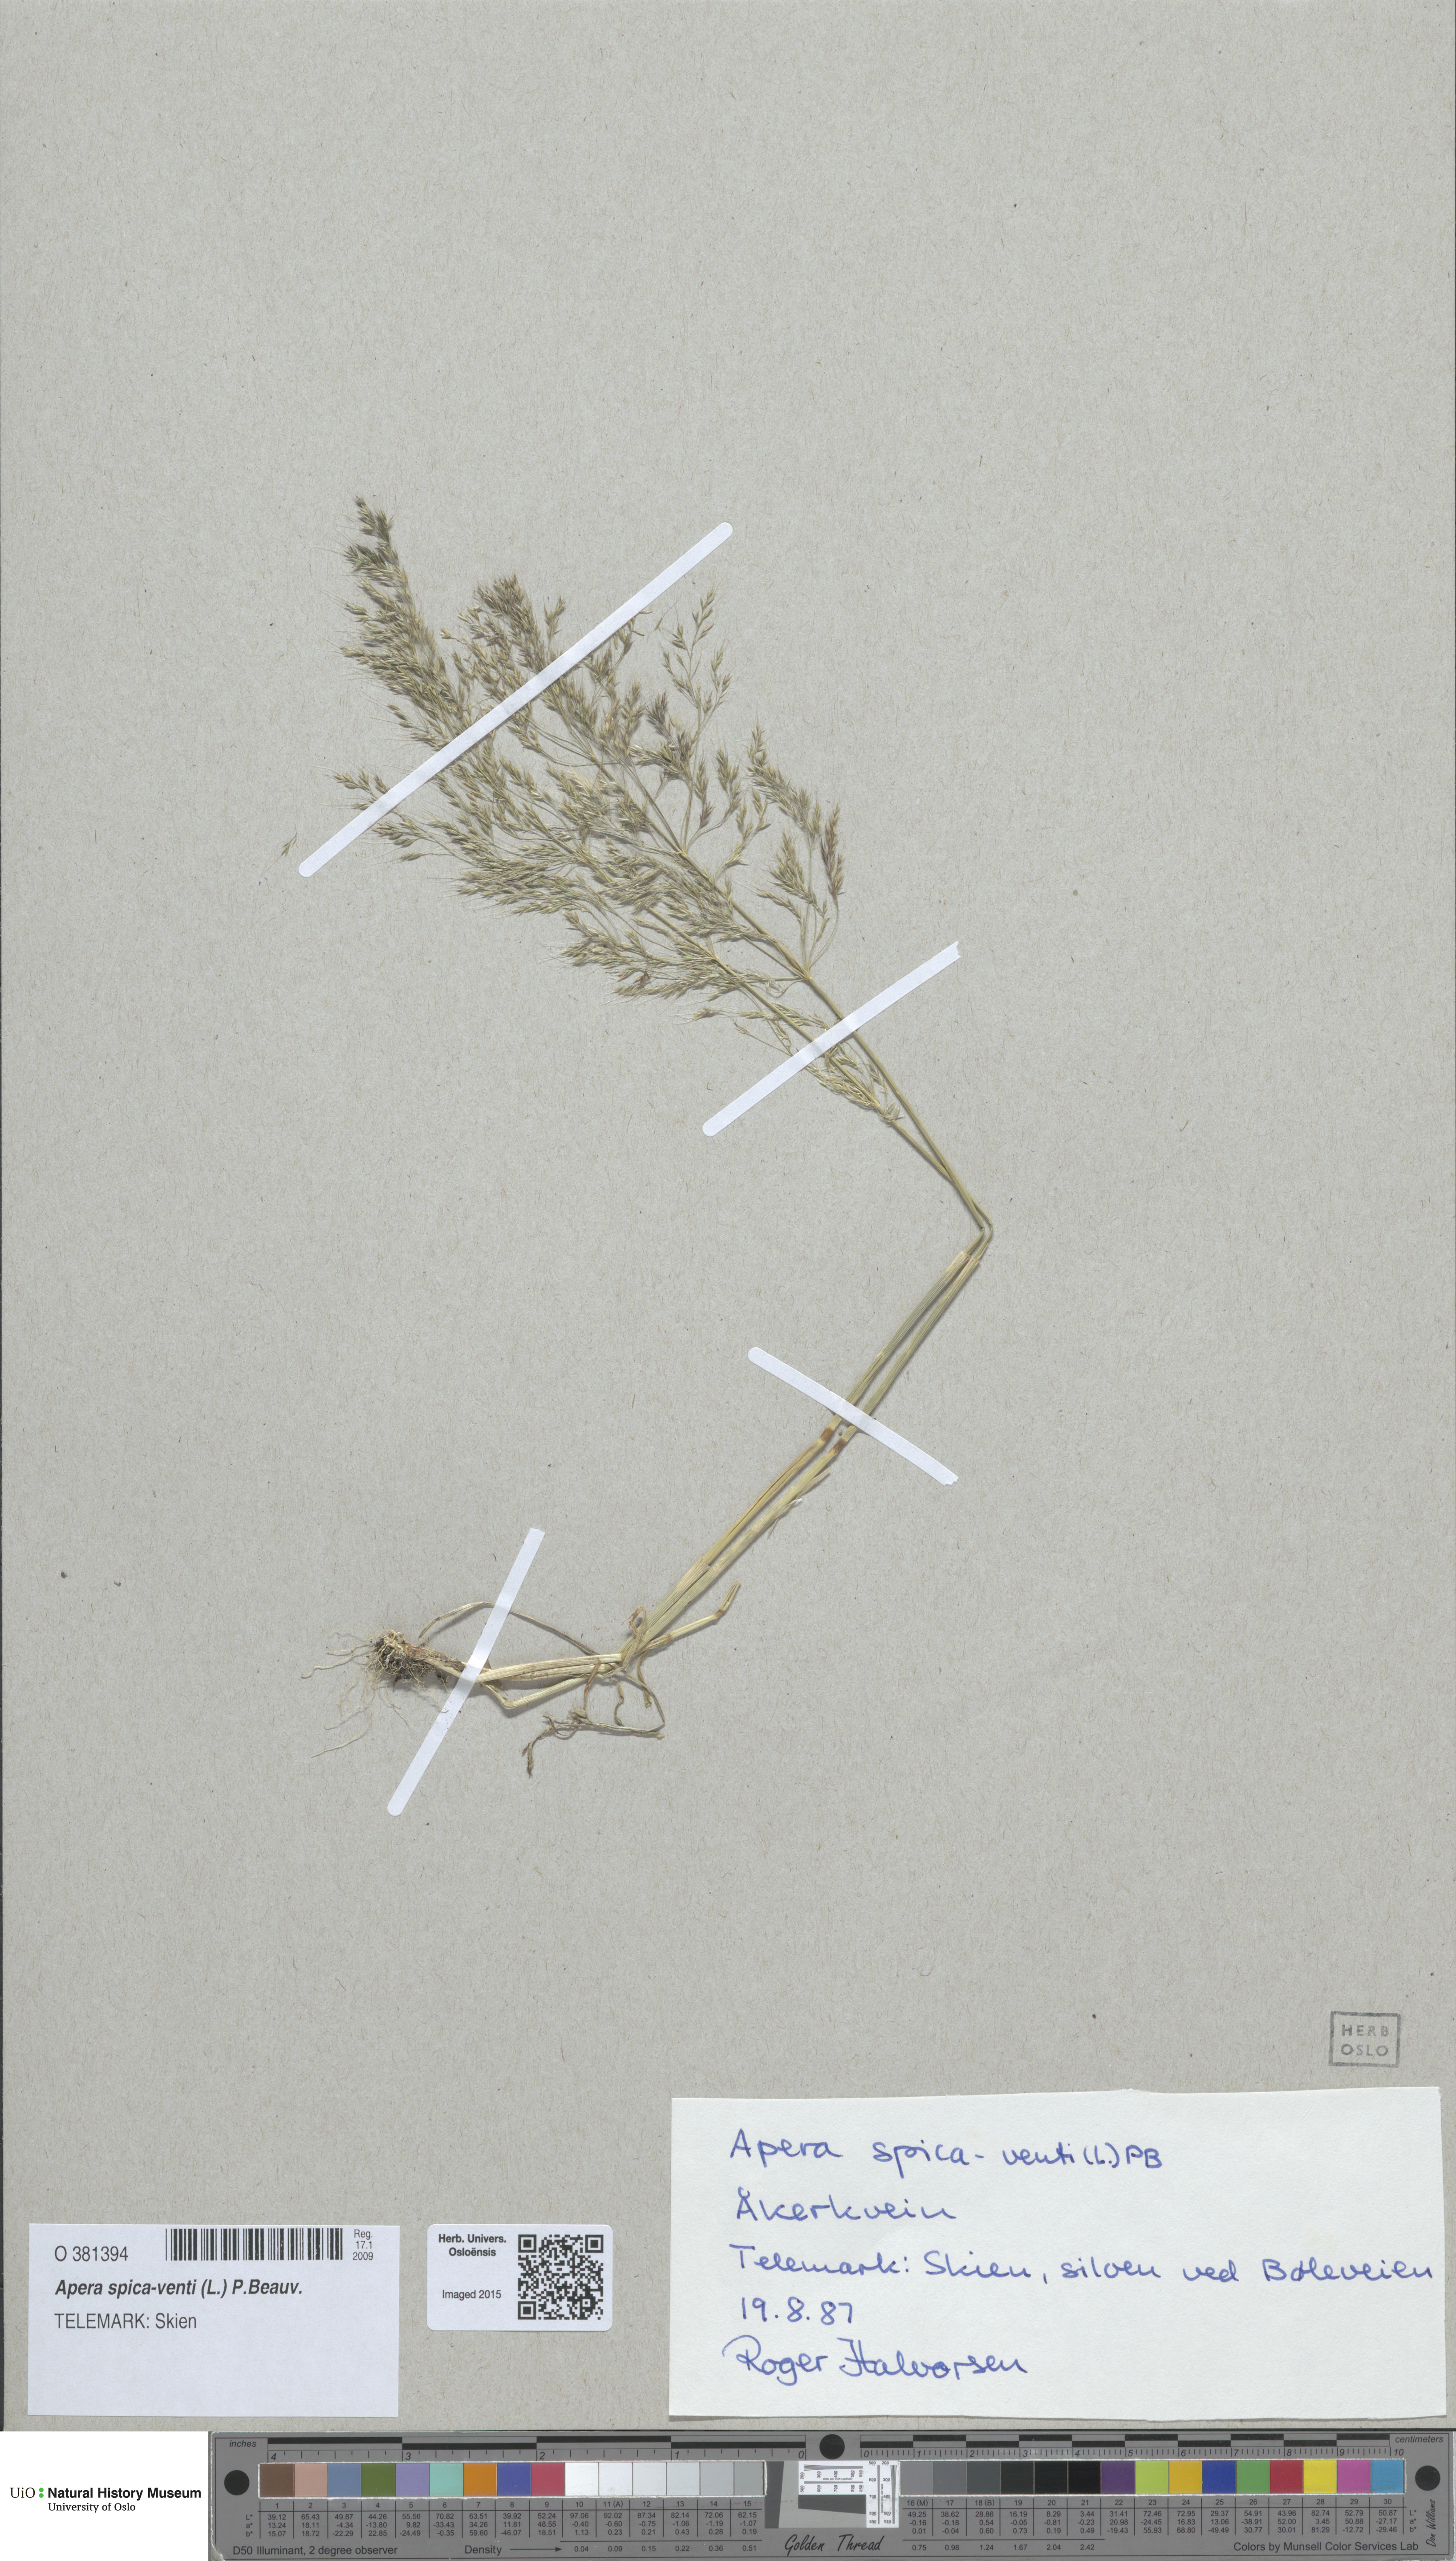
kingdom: Plantae
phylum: Tracheophyta
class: Liliopsida
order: Poales
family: Poaceae
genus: Apera
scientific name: Apera spica-venti
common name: Loose silky-bent
